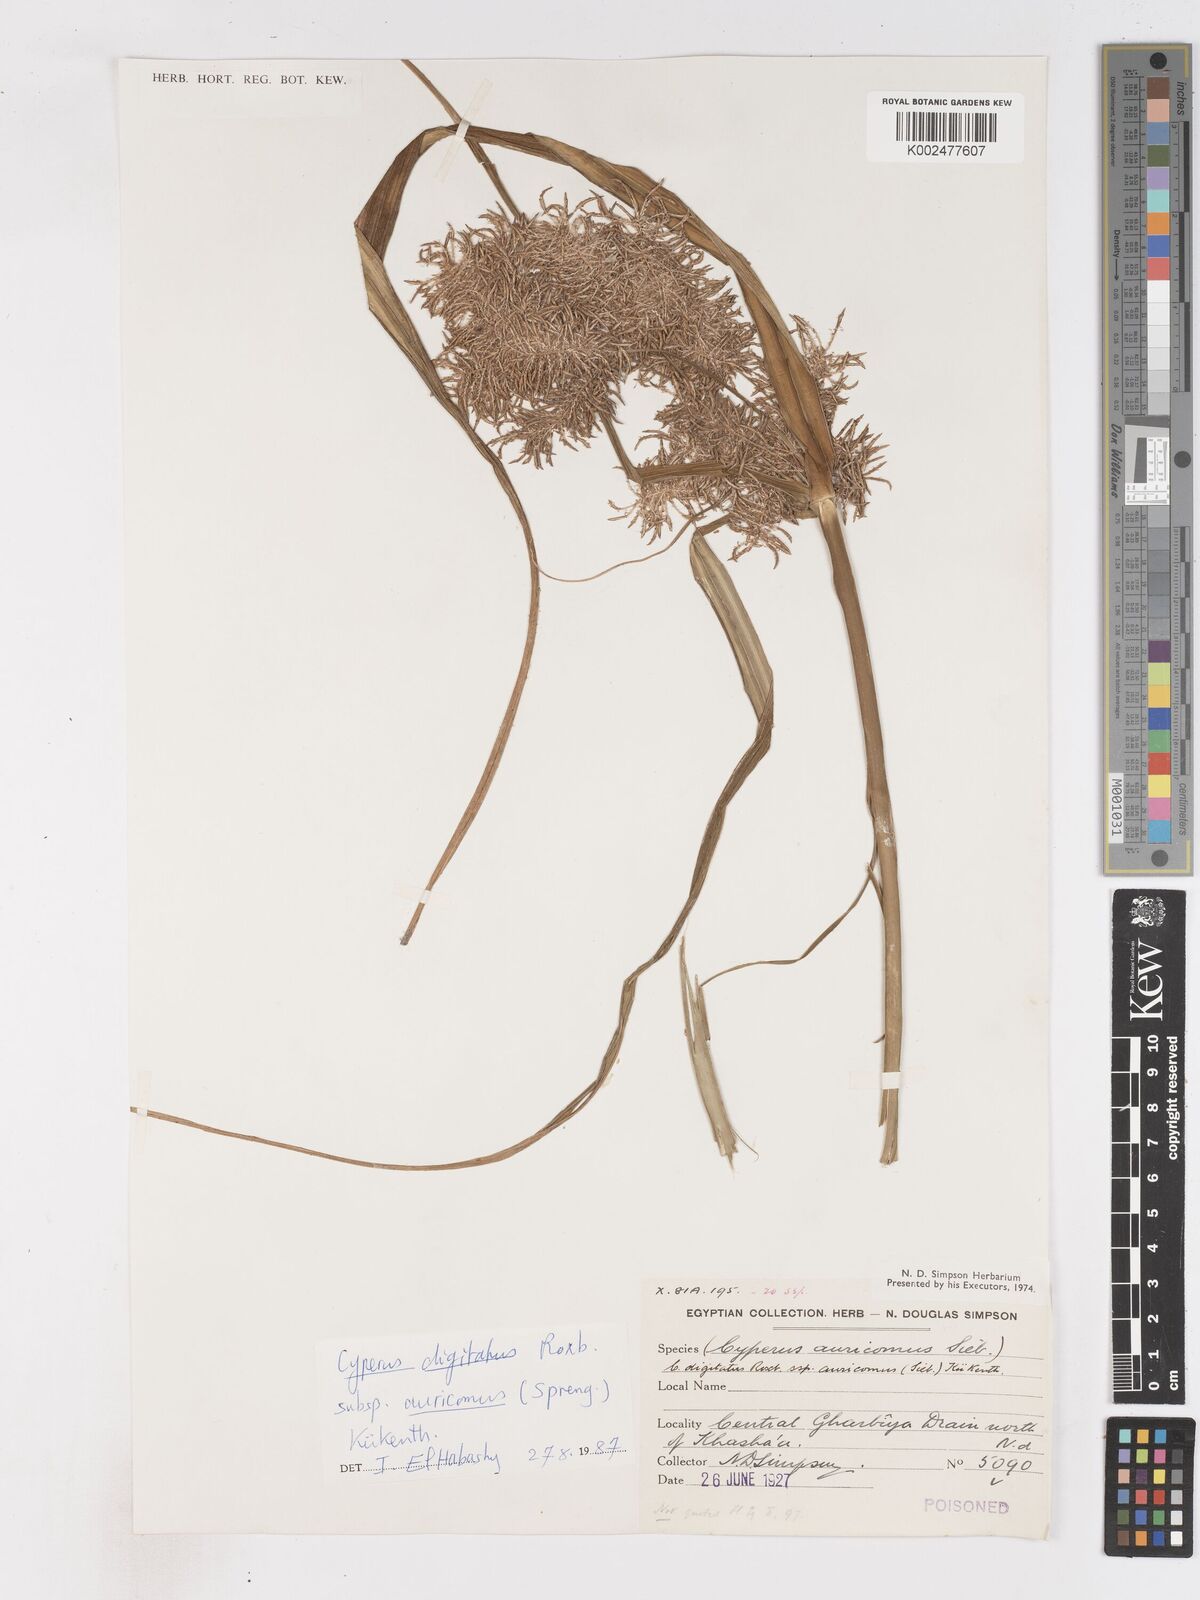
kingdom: Plantae
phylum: Tracheophyta
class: Liliopsida
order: Poales
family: Cyperaceae
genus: Cyperus
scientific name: Cyperus digitatus
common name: Finger flatsedge
